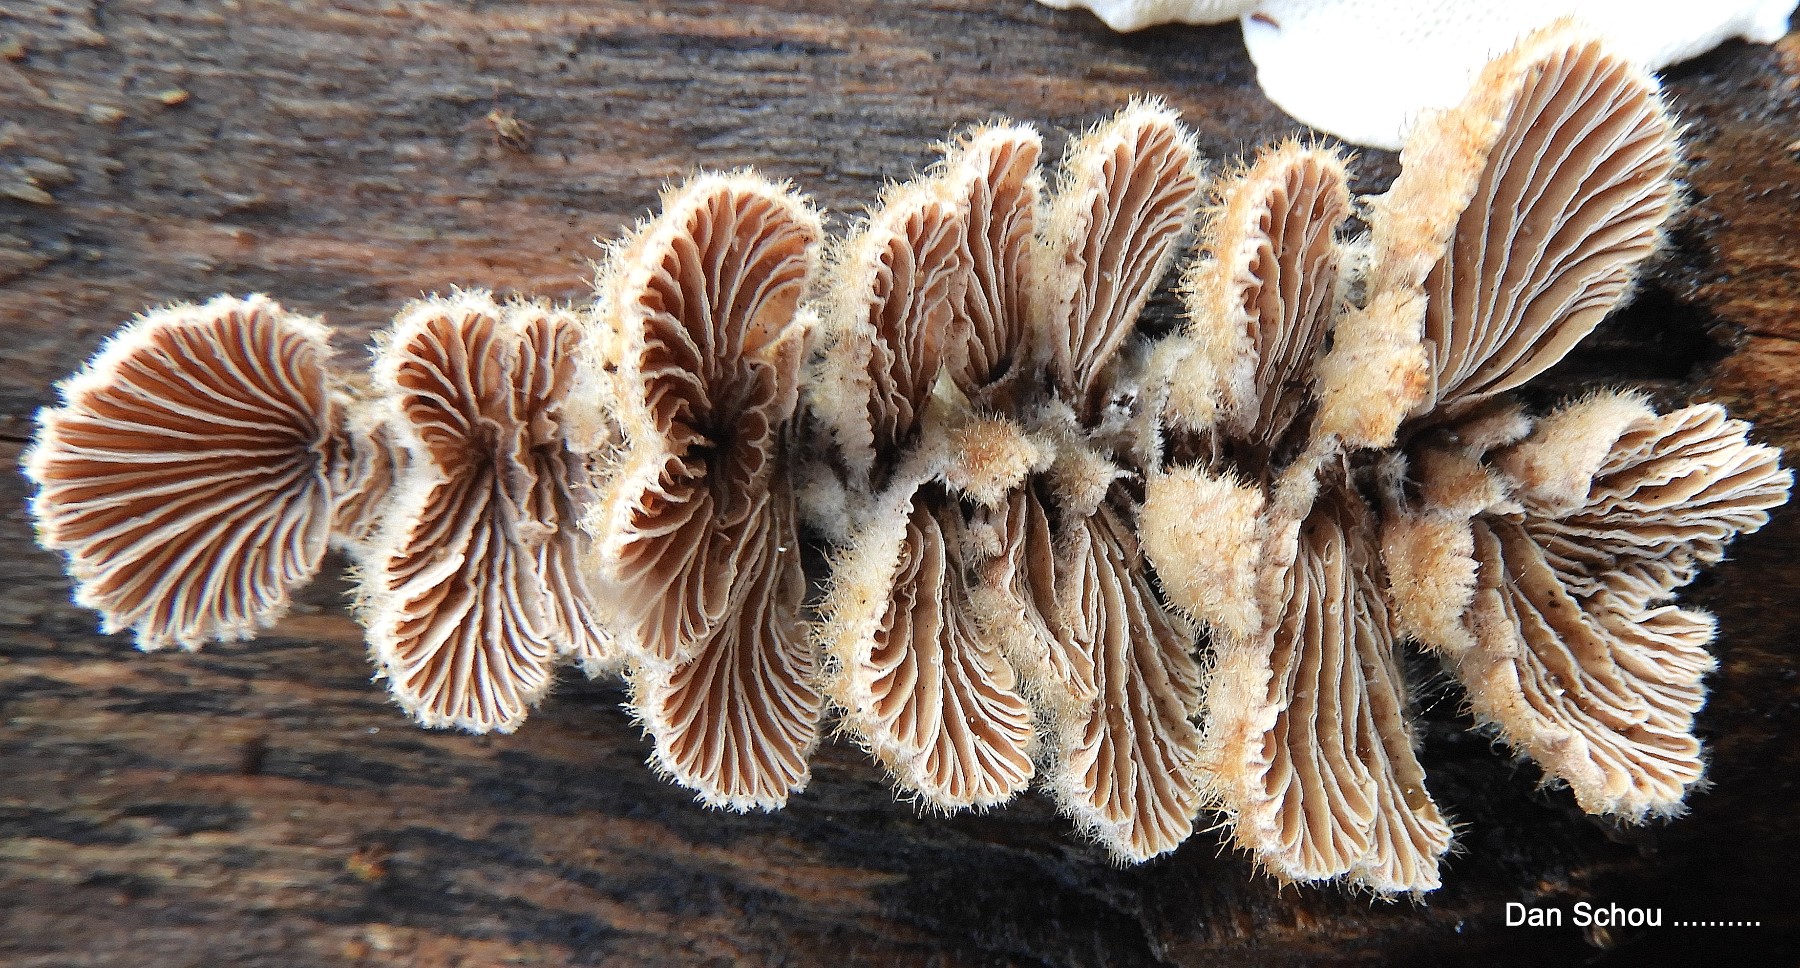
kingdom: Fungi
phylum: Basidiomycota
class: Agaricomycetes
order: Agaricales
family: Schizophyllaceae
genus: Schizophyllum
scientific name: Schizophyllum commune
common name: kløvblad
